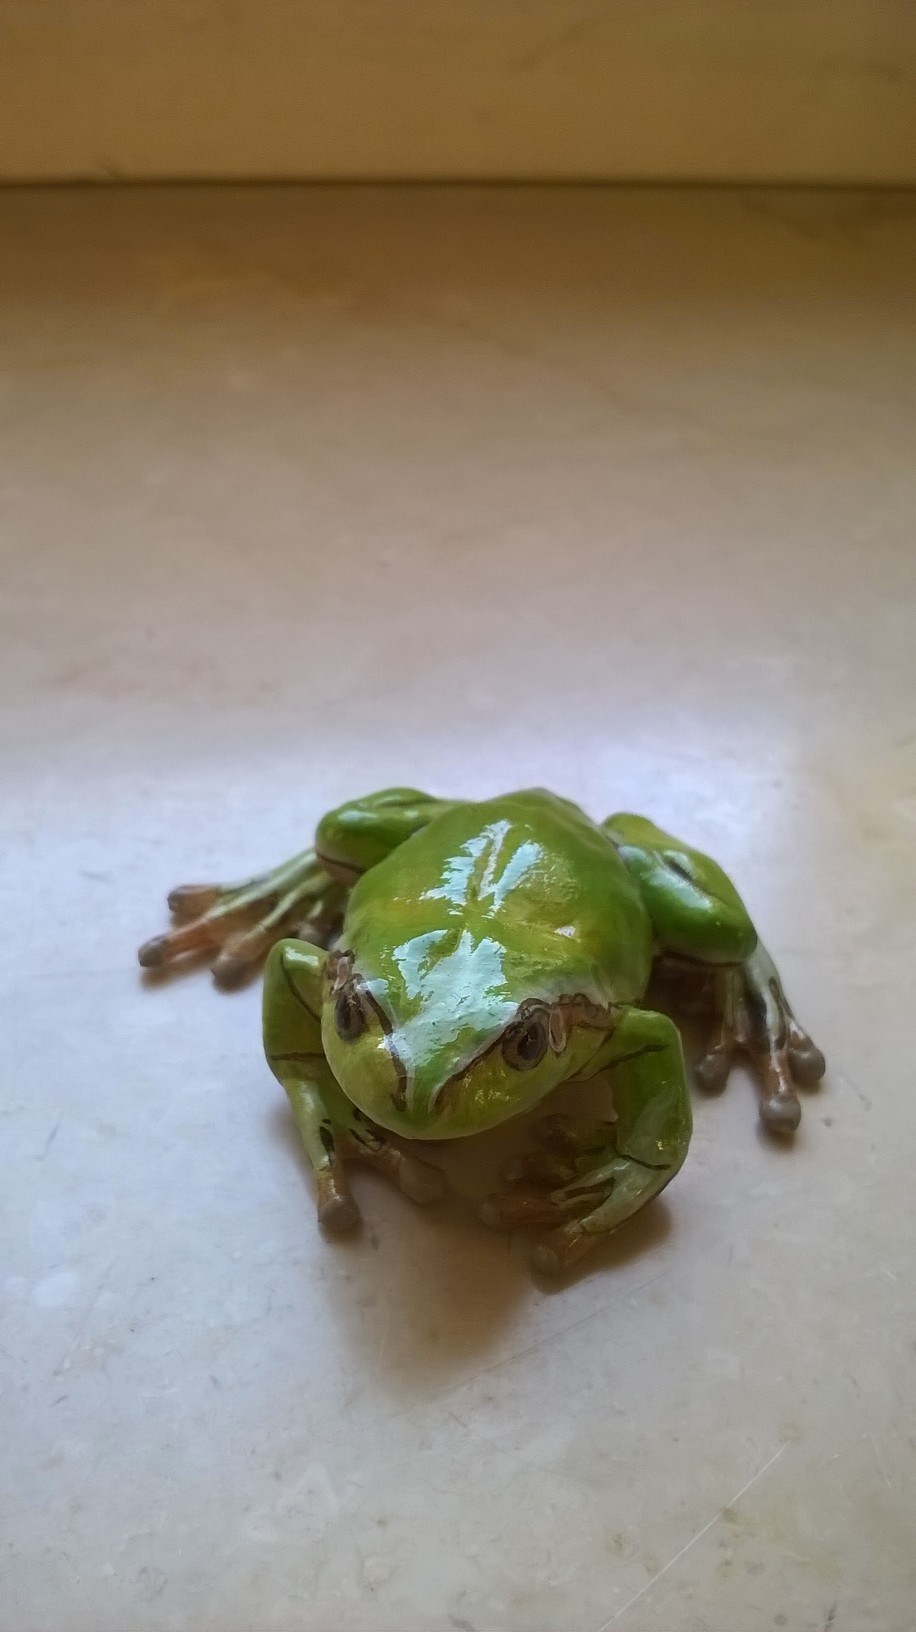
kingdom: Animalia
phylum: Chordata
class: Amphibia
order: Anura
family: Hylidae
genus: Hyla
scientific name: Hyla arborea
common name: Common tree frog
